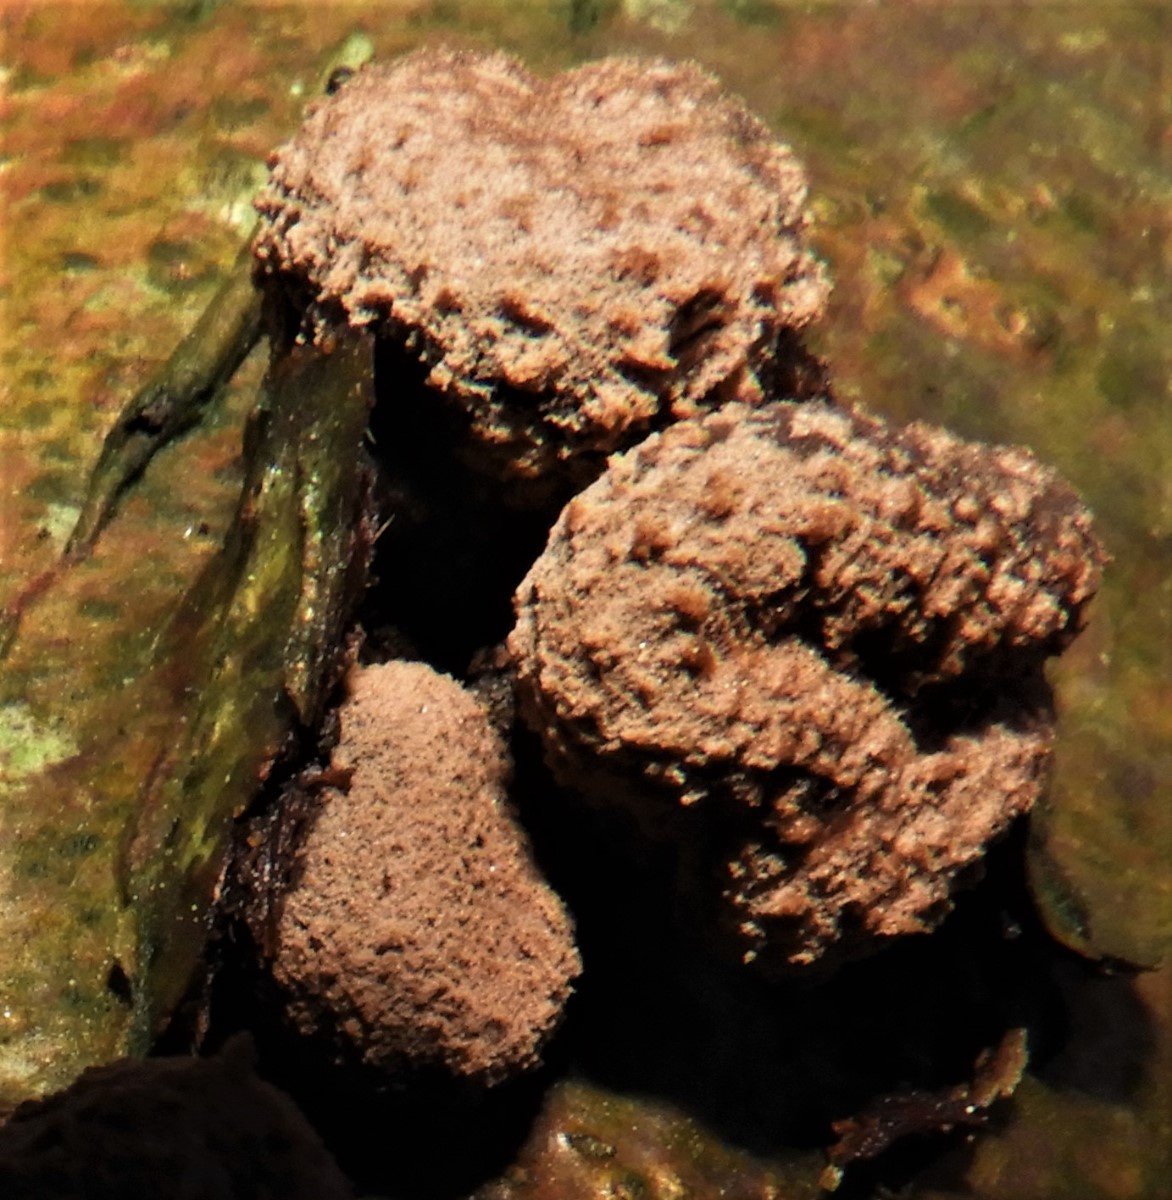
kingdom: Fungi
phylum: Ascomycota
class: Leotiomycetes
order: Helotiales
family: Cenangiaceae
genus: Encoelia
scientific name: Encoelia furfuracea
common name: hassel-læderskive
